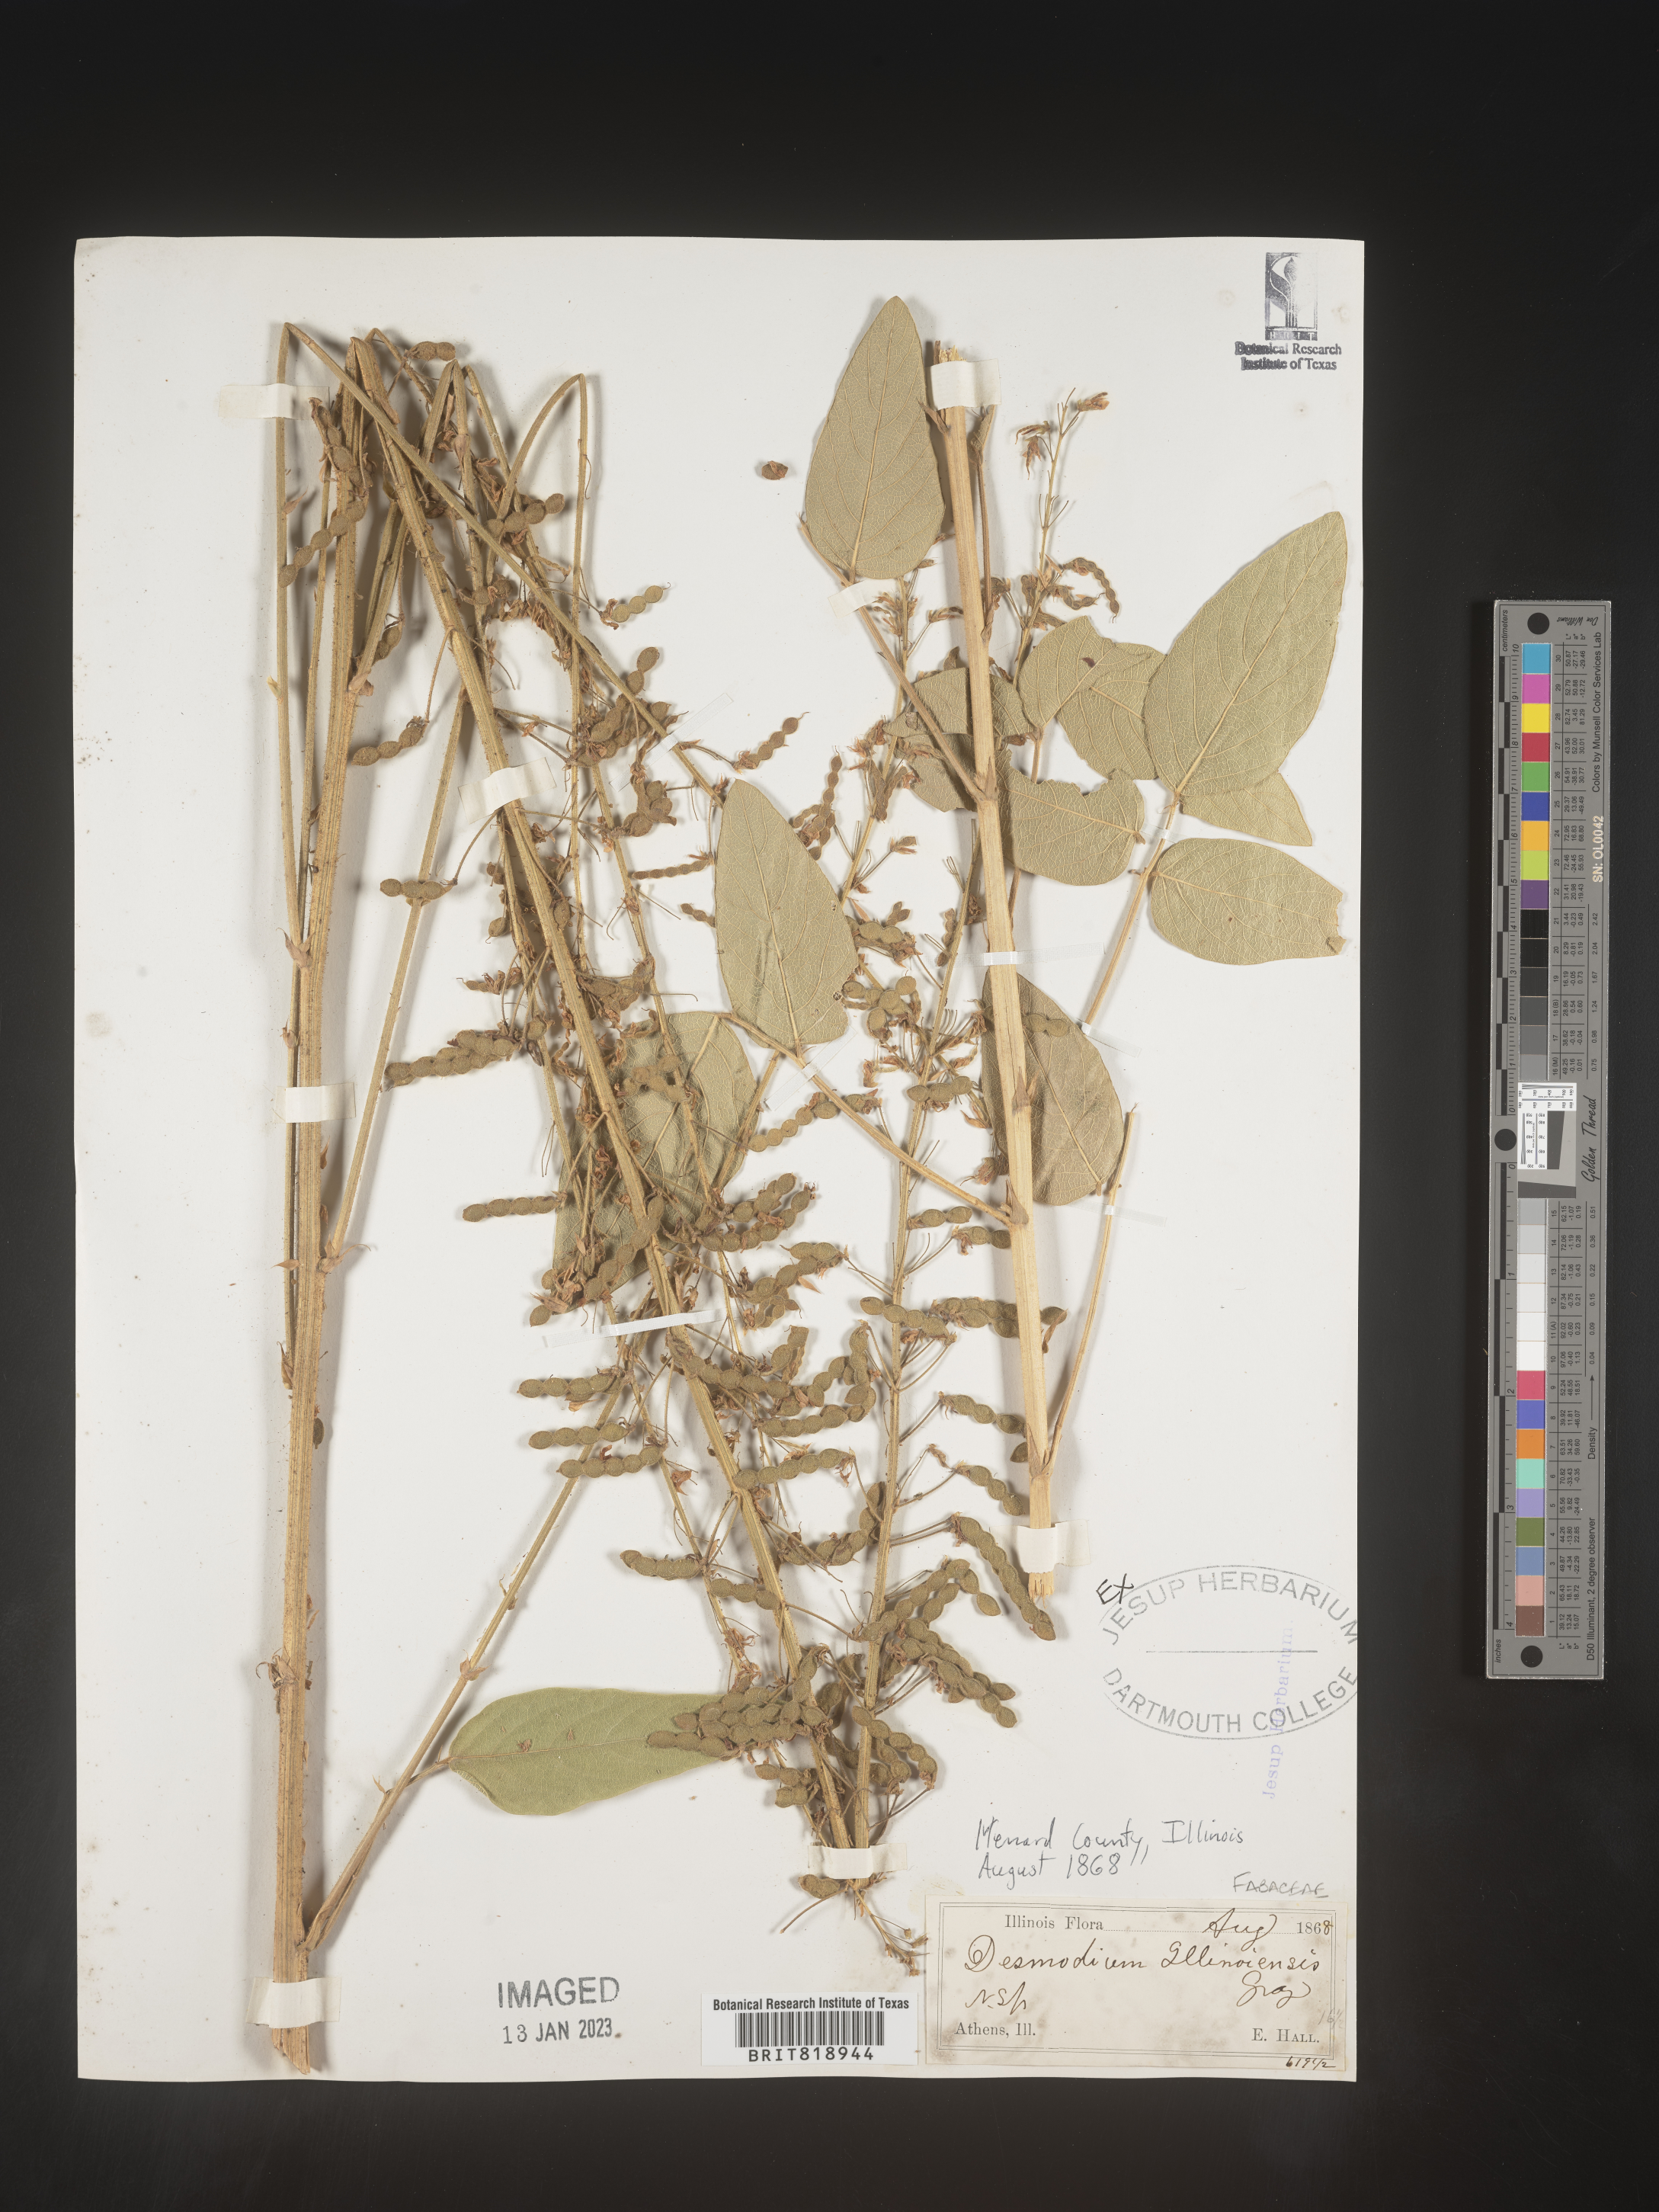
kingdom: Plantae
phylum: Tracheophyta
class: Magnoliopsida
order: Fabales
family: Fabaceae
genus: Desmodium
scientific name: Desmodium illinoense
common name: Illinois tick-clover
